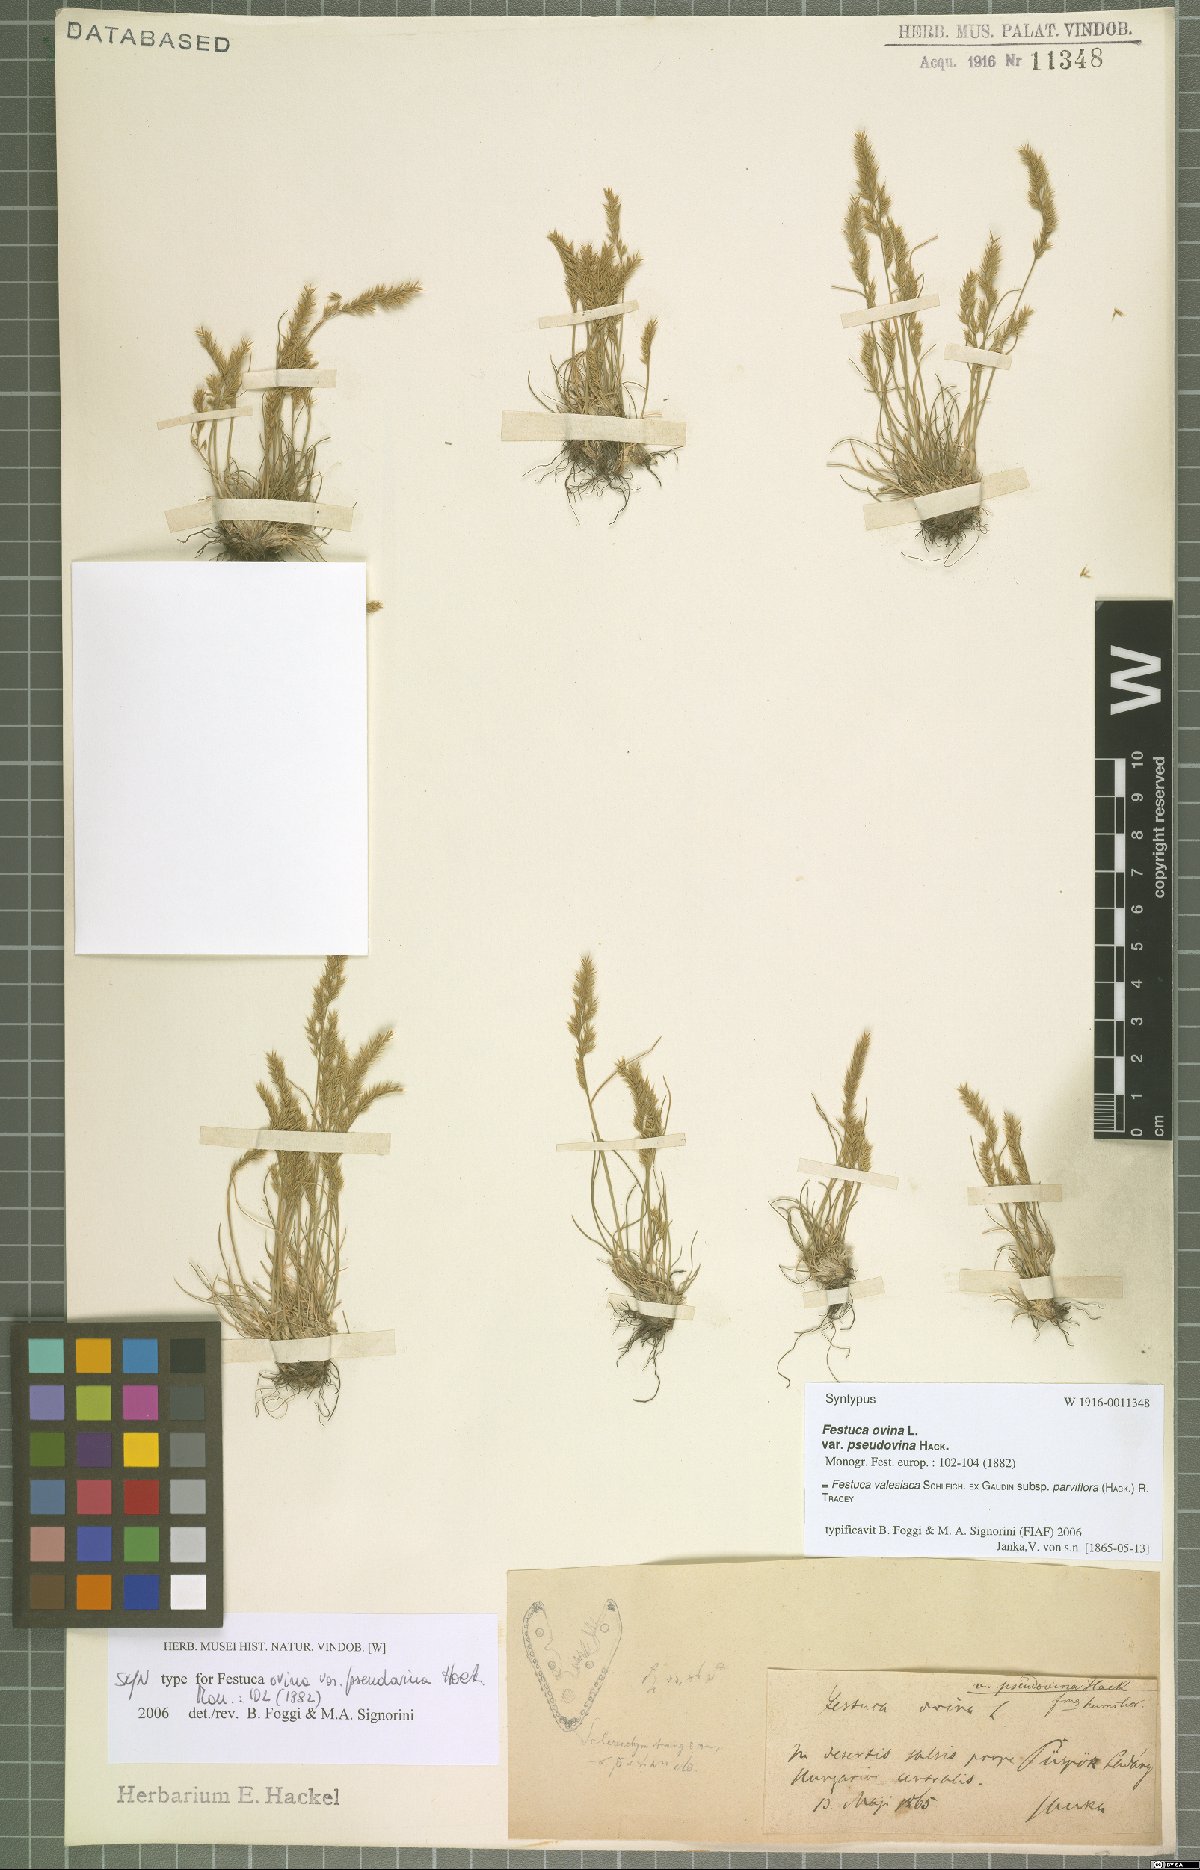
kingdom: Plantae
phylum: Tracheophyta
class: Liliopsida
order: Poales
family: Poaceae
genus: Festuca
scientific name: Festuca pulchra
